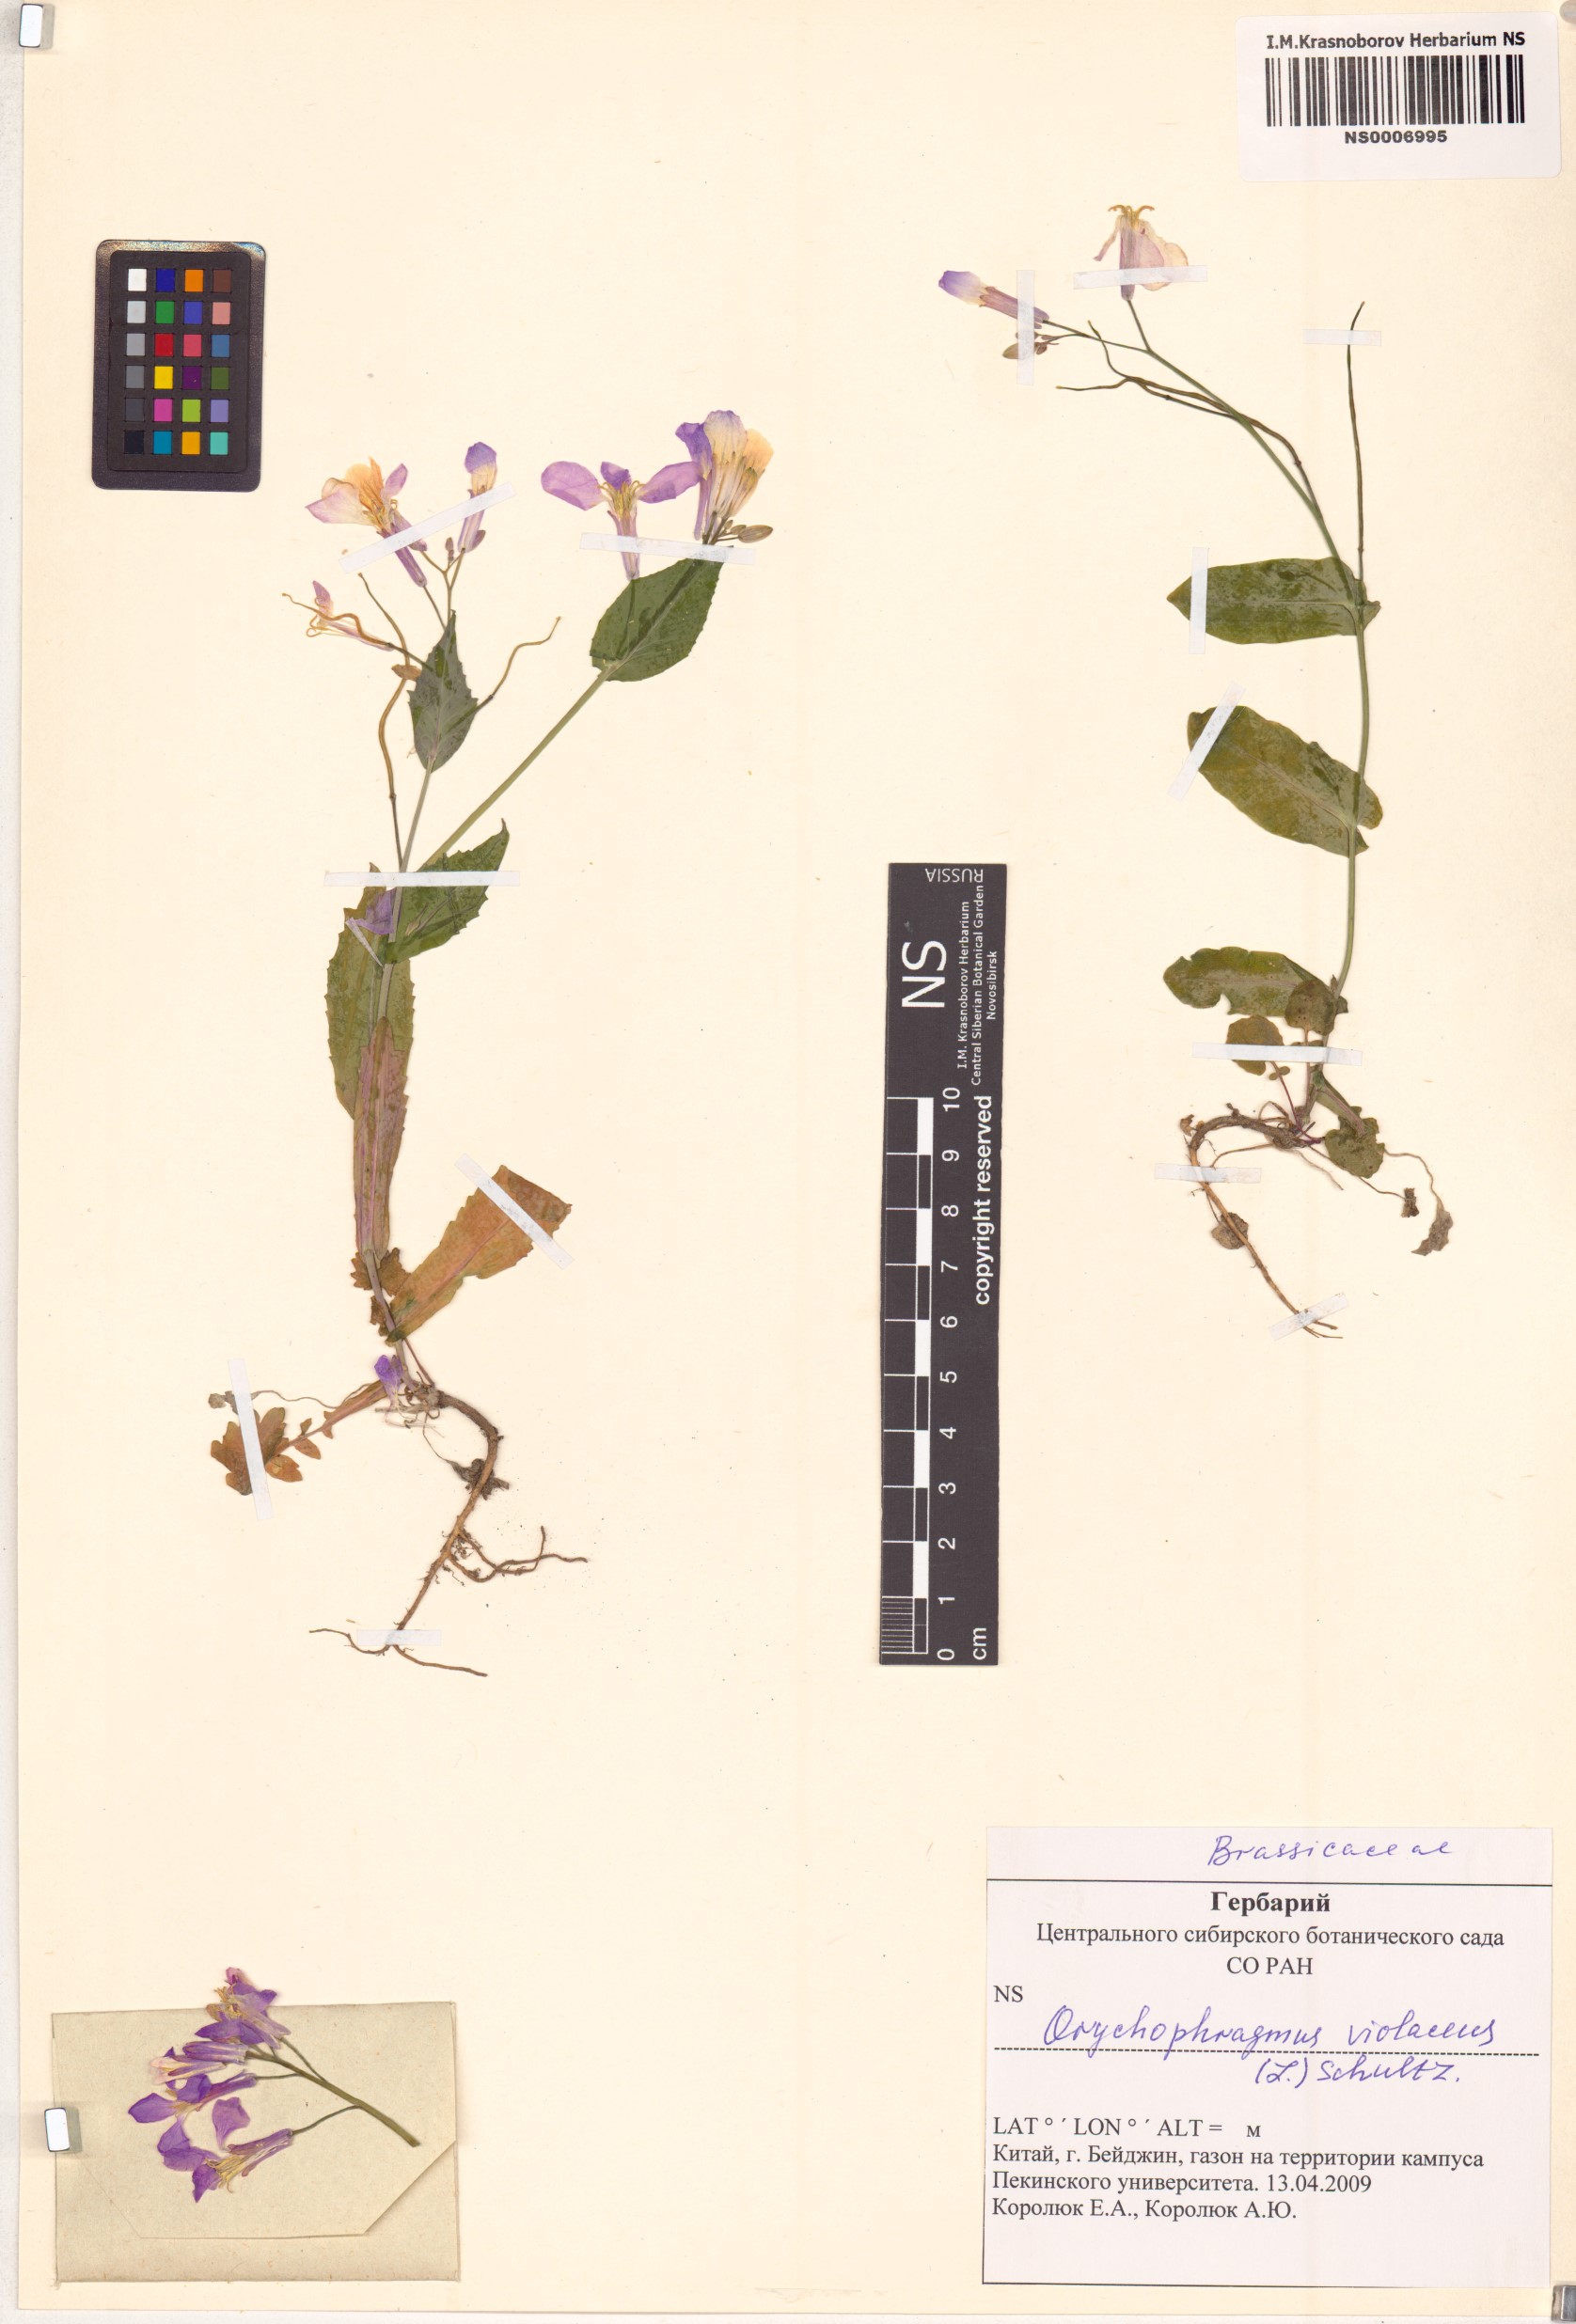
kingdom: Plantae
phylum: Tracheophyta
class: Magnoliopsida
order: Brassicales
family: Brassicaceae
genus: Orychophragmus
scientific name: Orychophragmus violaceus
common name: Mustard
